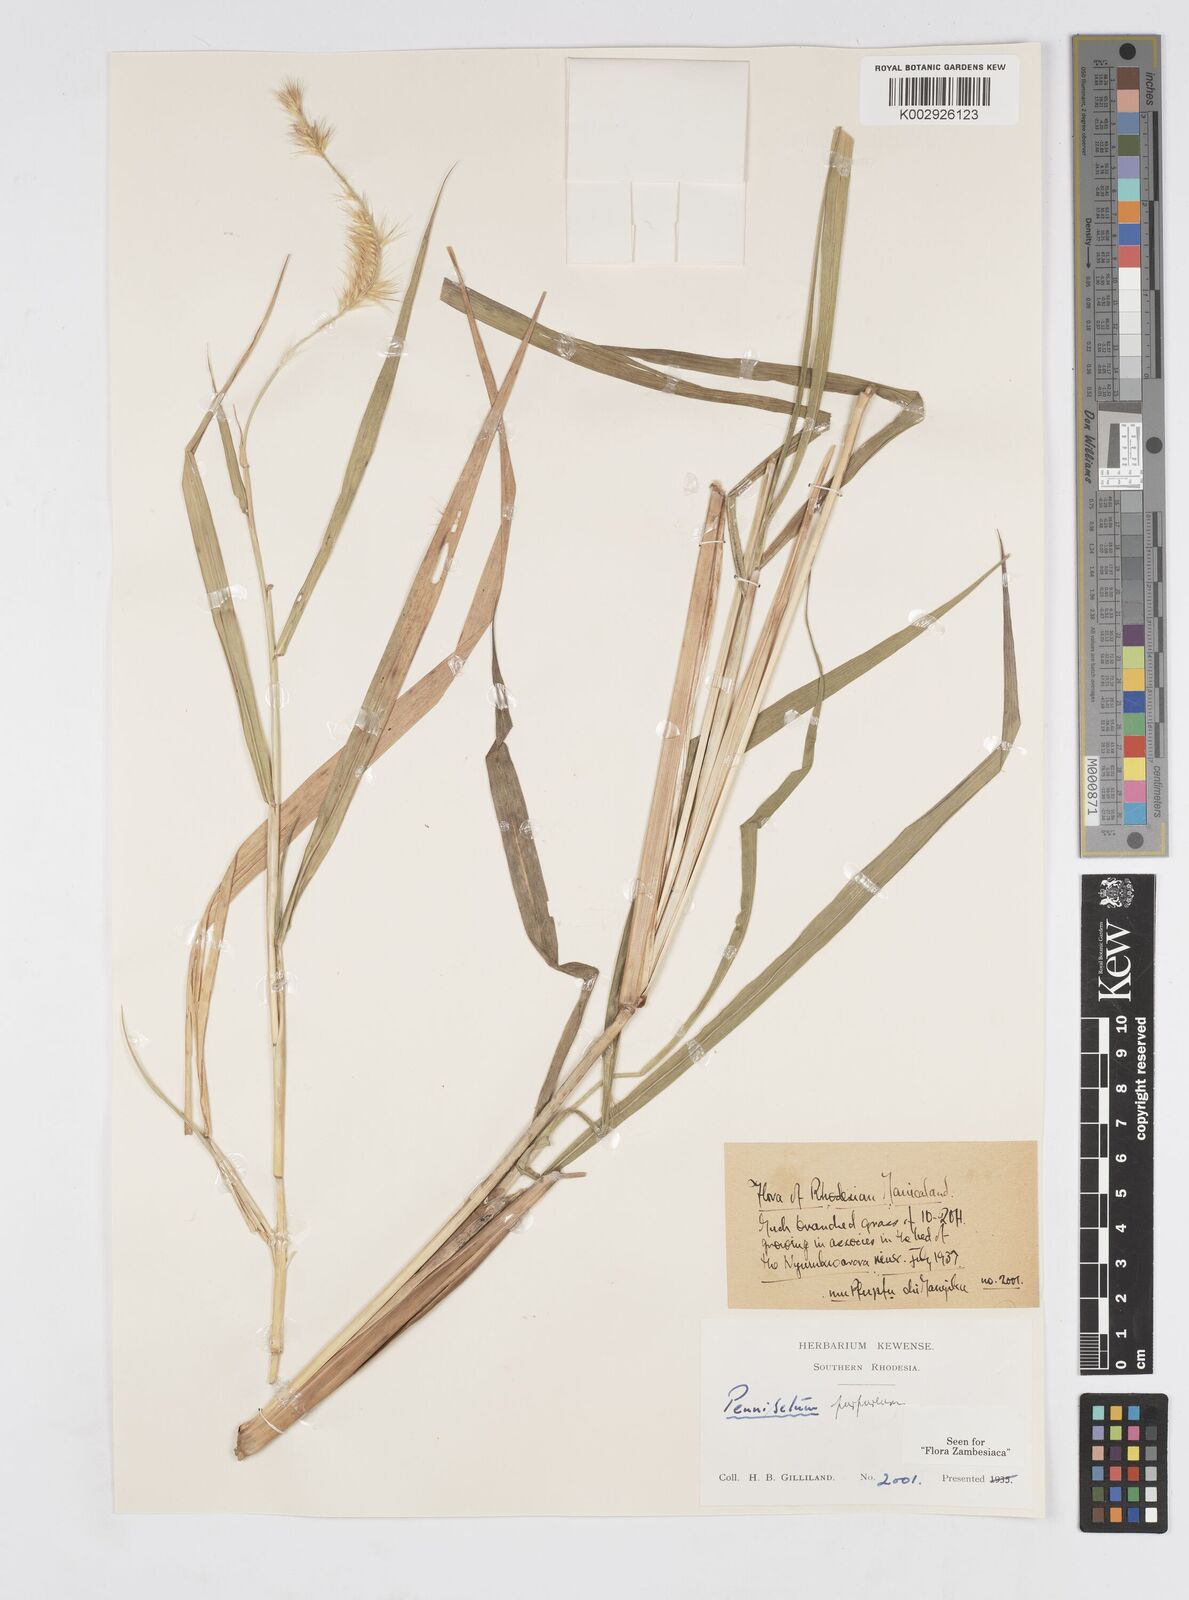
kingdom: Plantae
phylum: Tracheophyta
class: Liliopsida
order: Poales
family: Poaceae
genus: Cenchrus
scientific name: Cenchrus purpureus
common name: Elephant grass
